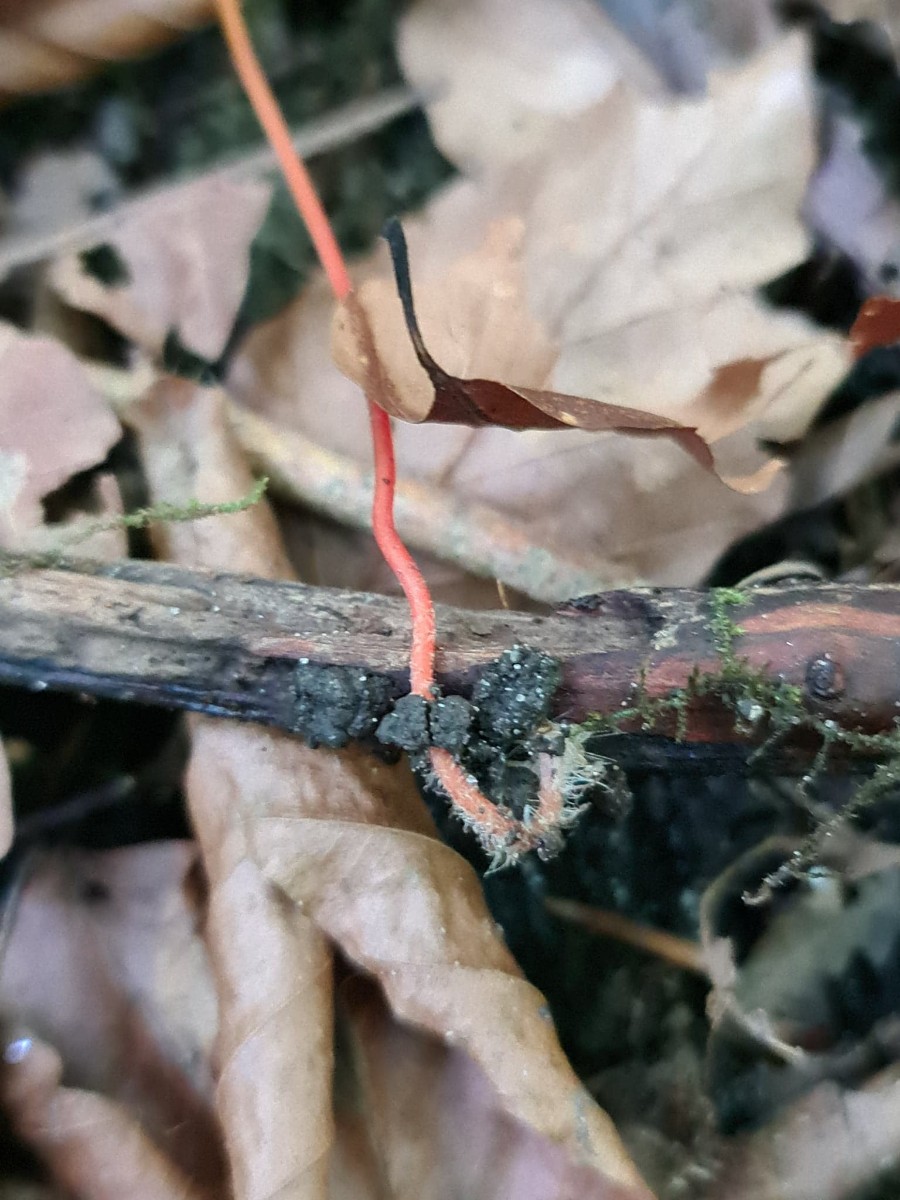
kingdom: Fungi
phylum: Basidiomycota
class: Agaricomycetes
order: Agaricales
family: Mycenaceae
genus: Mycena
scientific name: Mycena crocata
